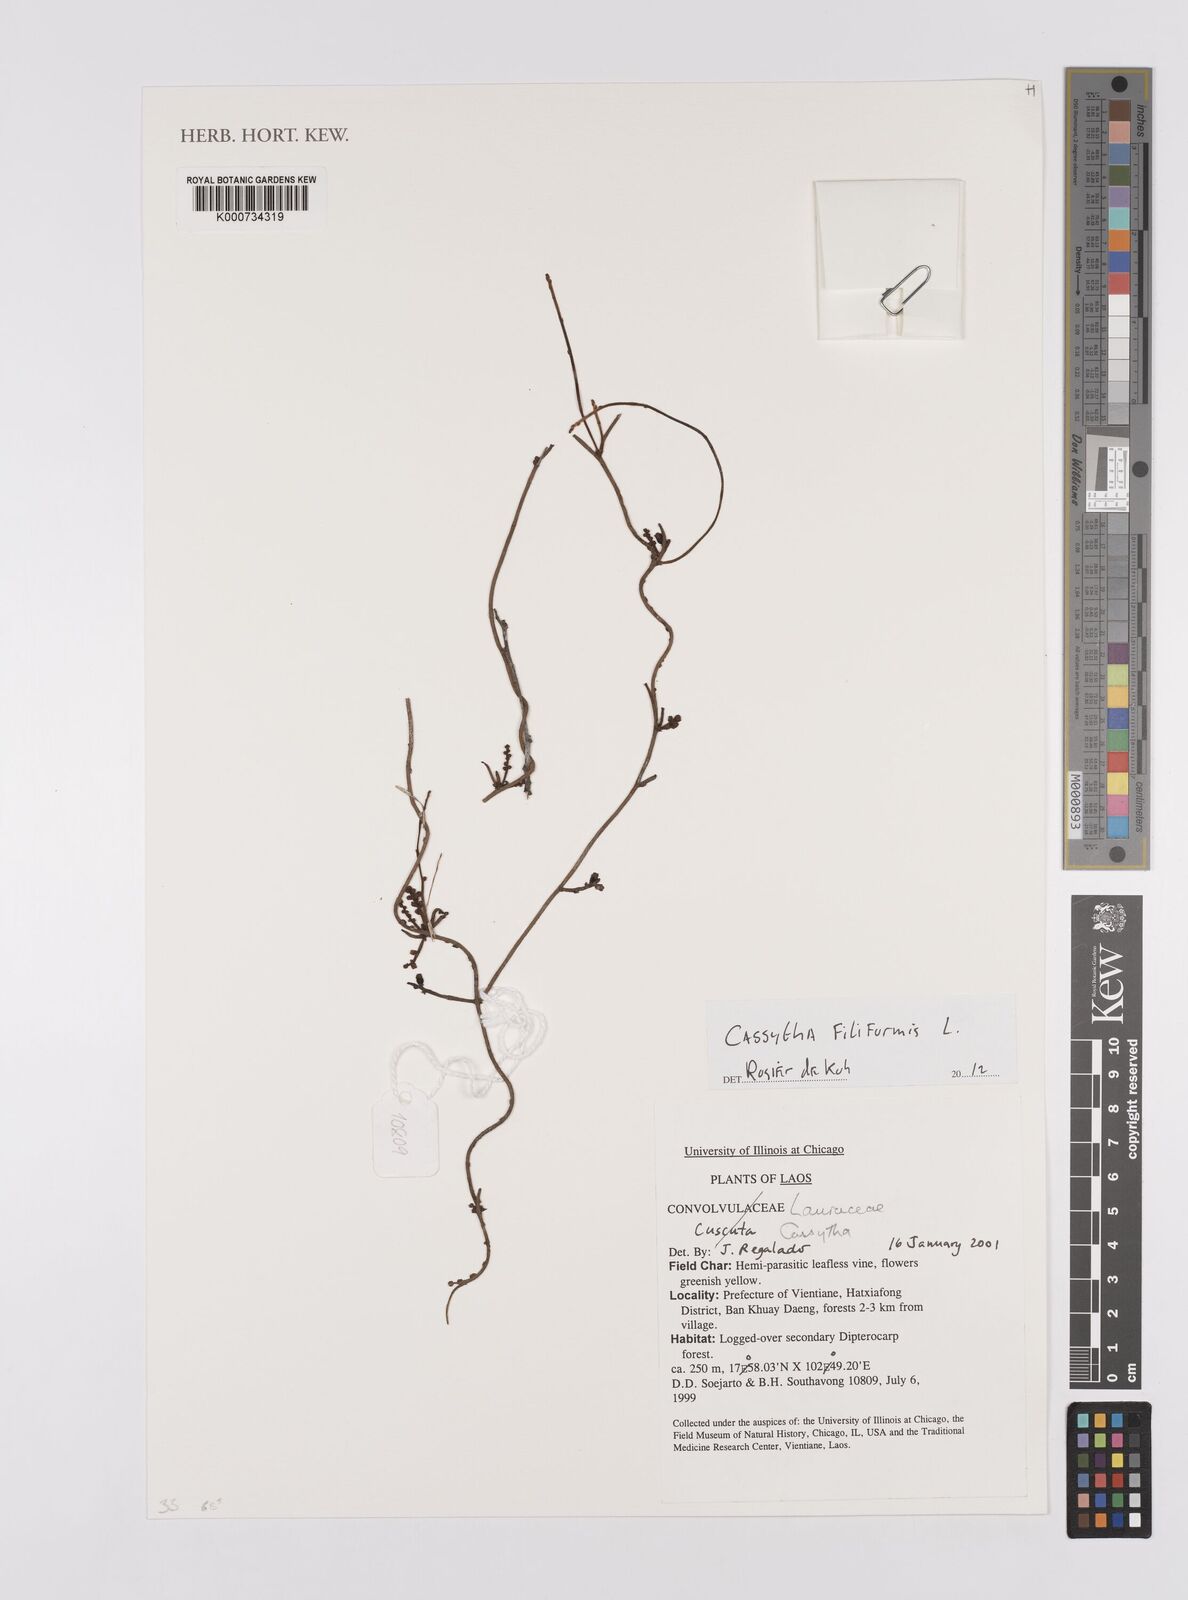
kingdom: Plantae
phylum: Tracheophyta
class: Magnoliopsida
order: Laurales
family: Lauraceae
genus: Cassytha
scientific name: Cassytha filiformis
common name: Dodder-laurel
